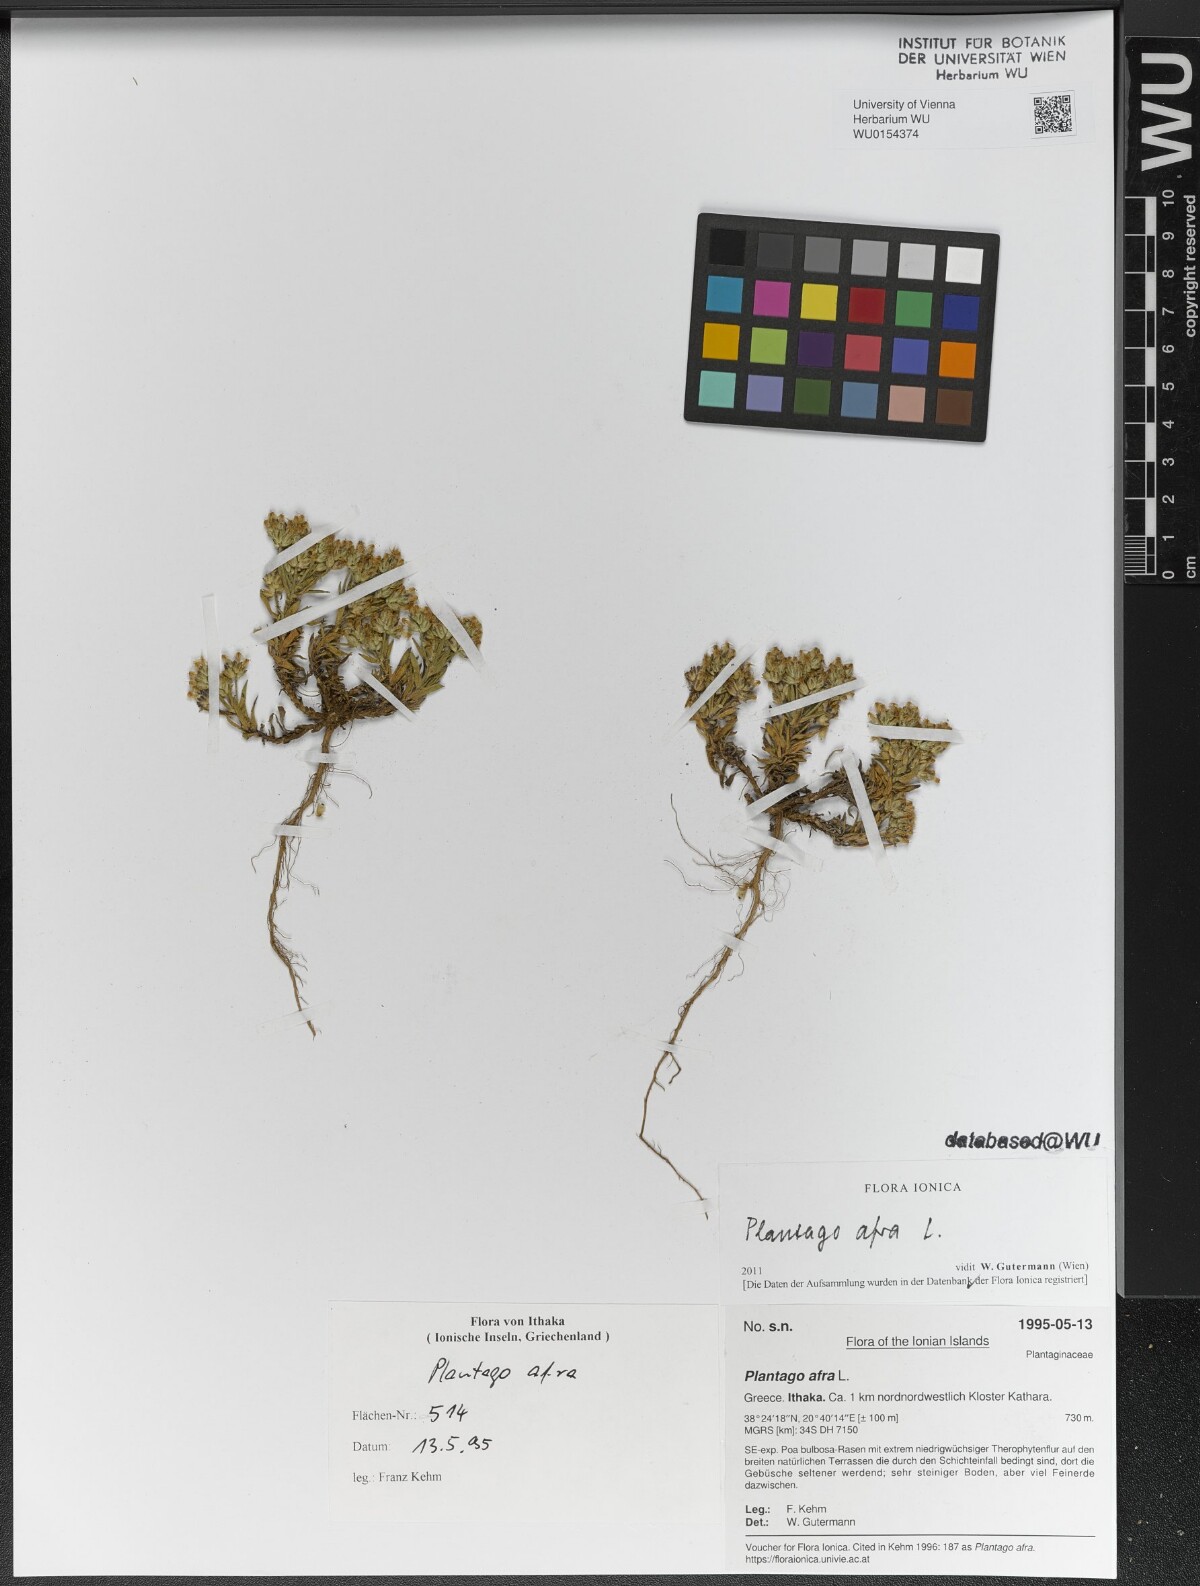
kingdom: Plantae
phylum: Tracheophyta
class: Magnoliopsida
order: Lamiales
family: Plantaginaceae
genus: Plantago
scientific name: Plantago afra
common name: Glandular plantain
